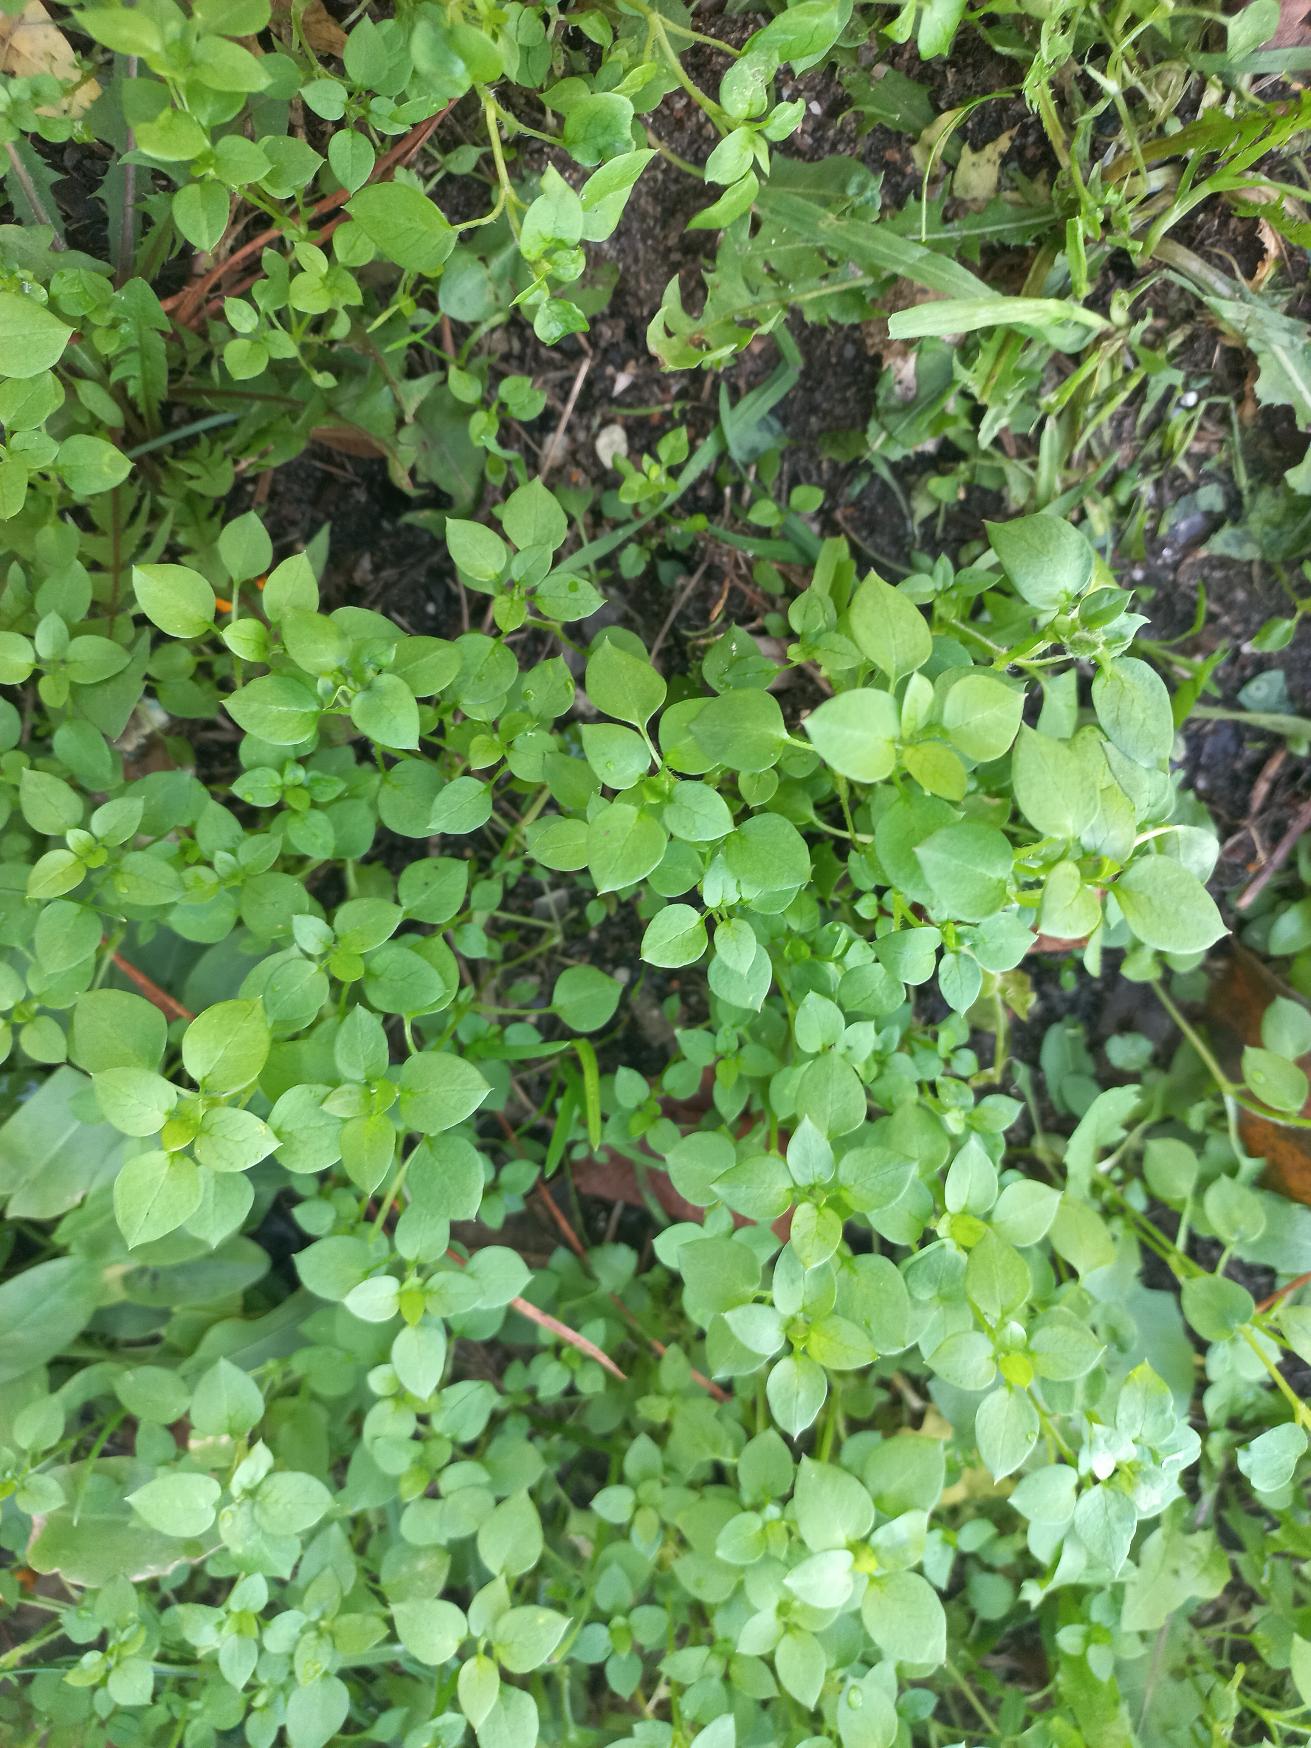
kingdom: Plantae
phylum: Tracheophyta
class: Magnoliopsida
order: Caryophyllales
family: Caryophyllaceae
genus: Stellaria
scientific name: Stellaria media
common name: Almindelig fuglegræs
